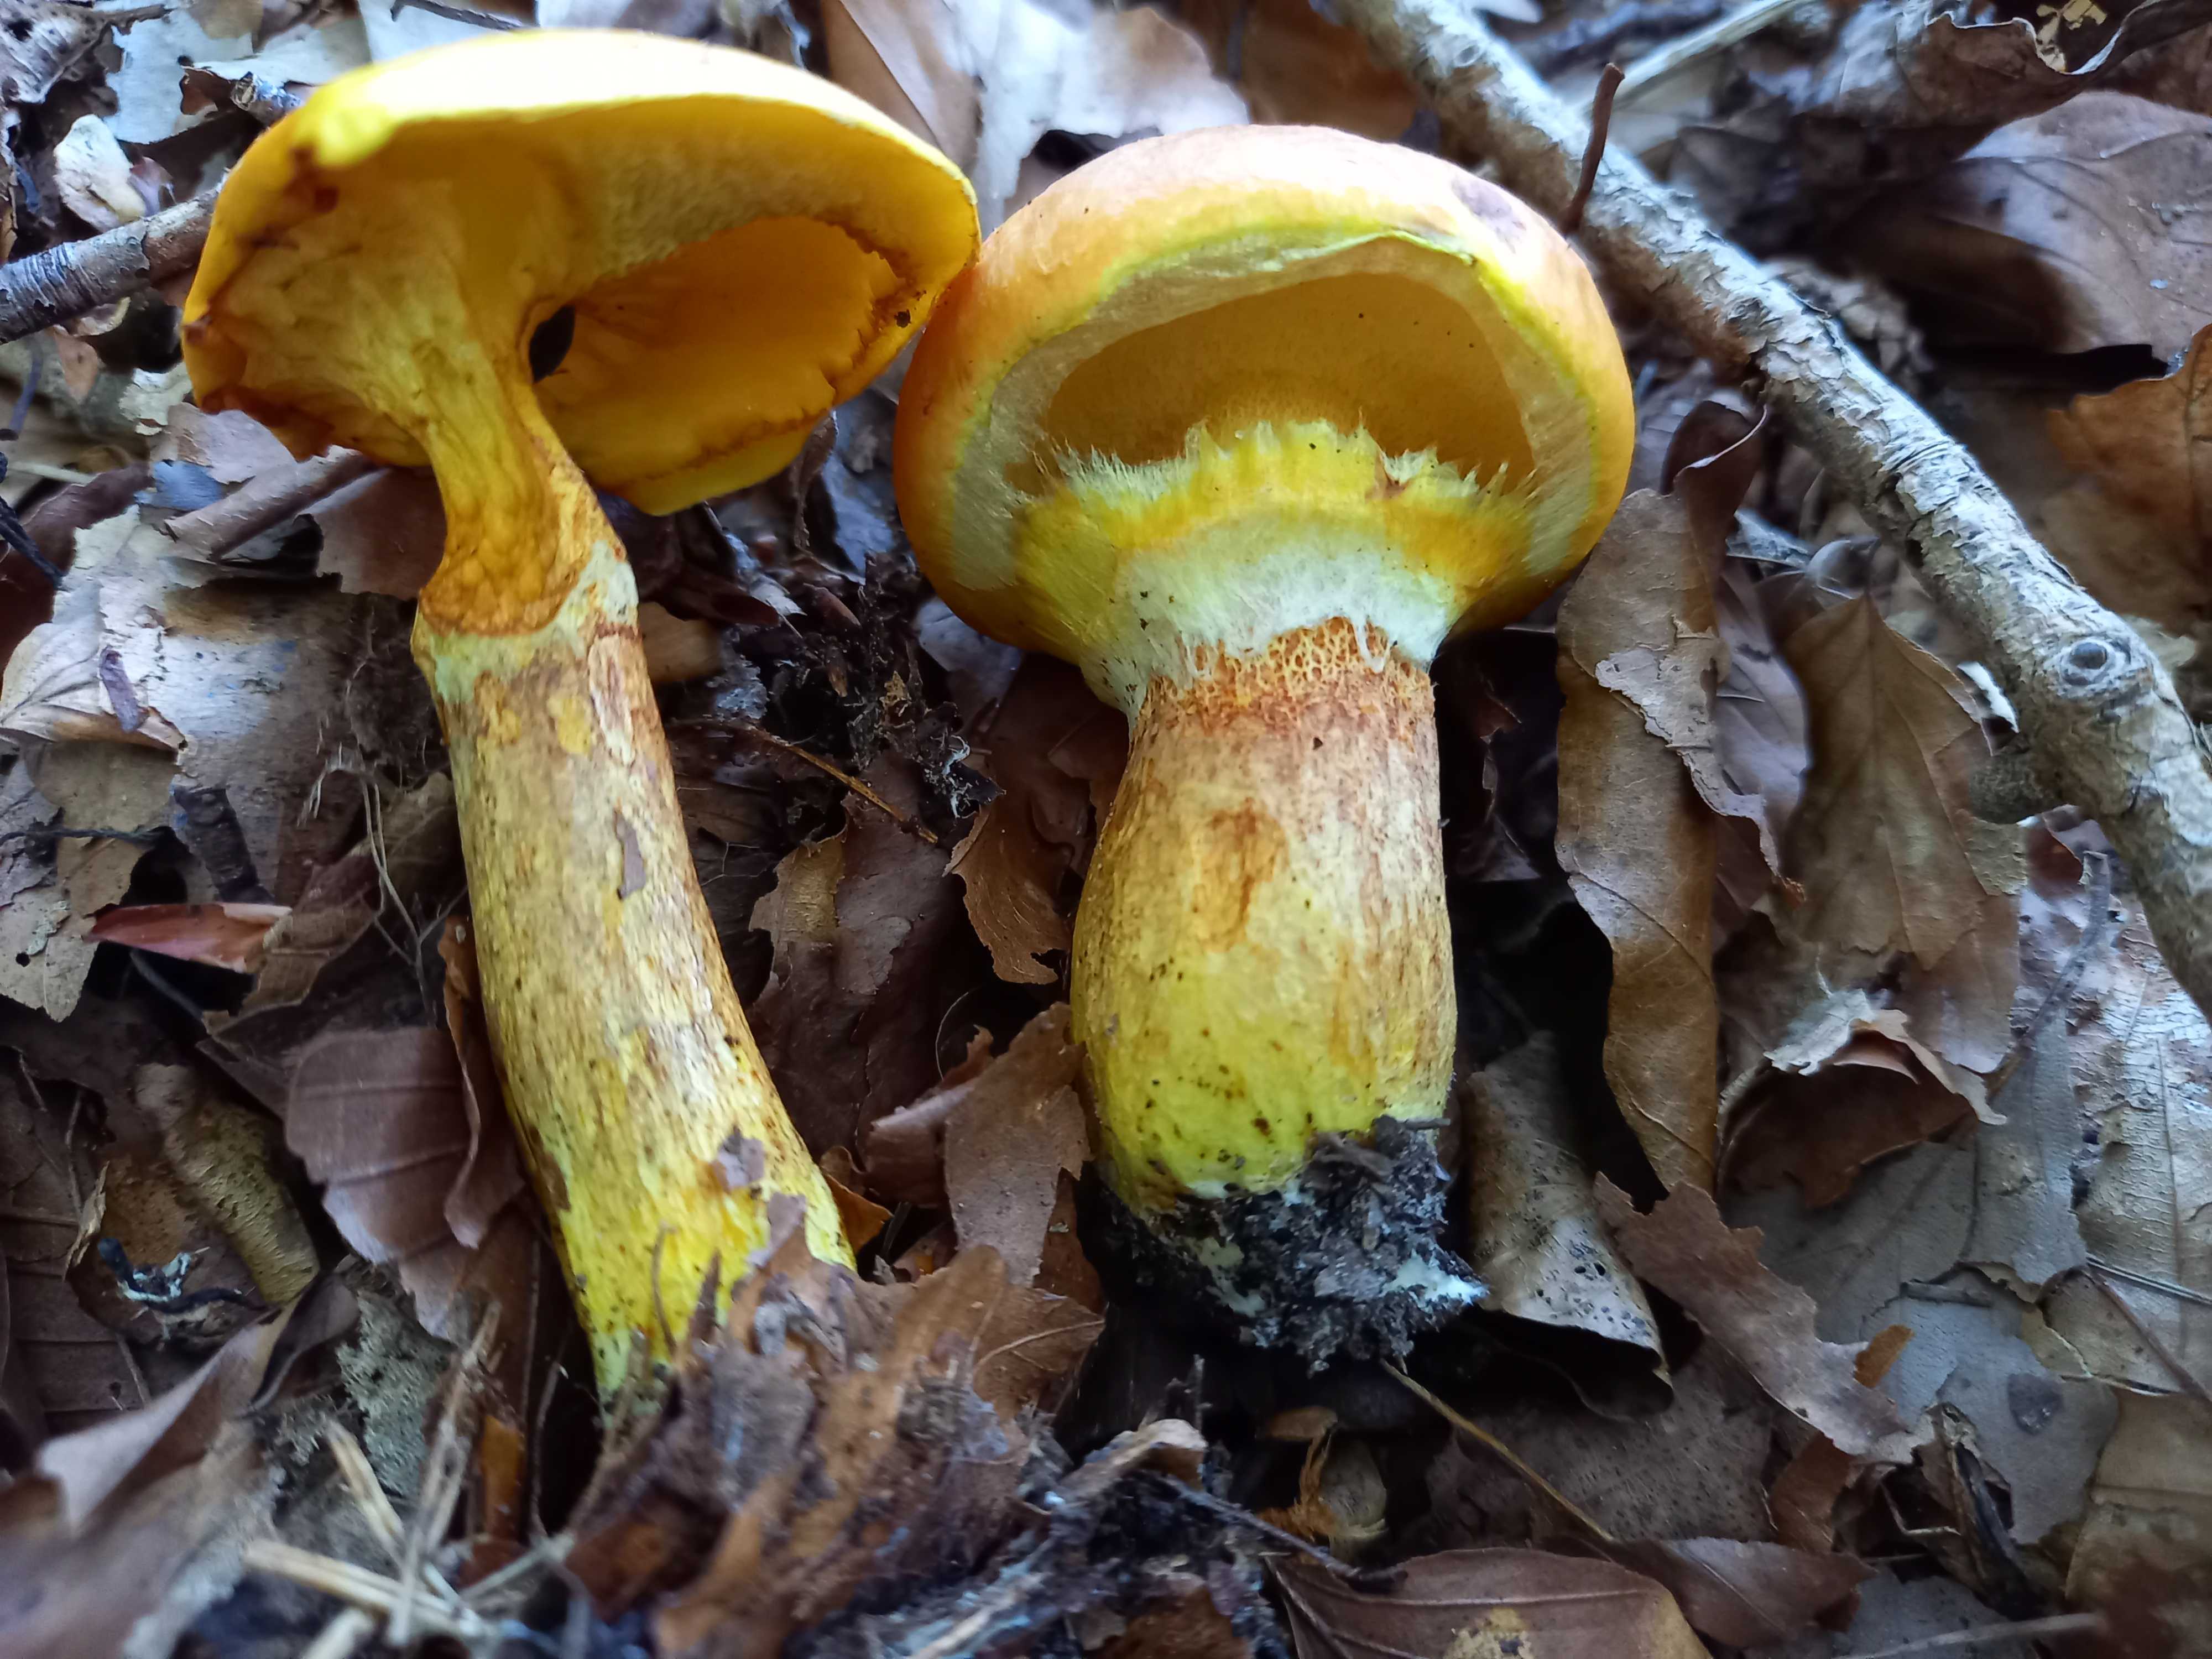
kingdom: Fungi
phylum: Basidiomycota
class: Agaricomycetes
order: Boletales
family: Suillaceae
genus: Suillus
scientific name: Suillus grevillei
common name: lærke-slimrørhat
